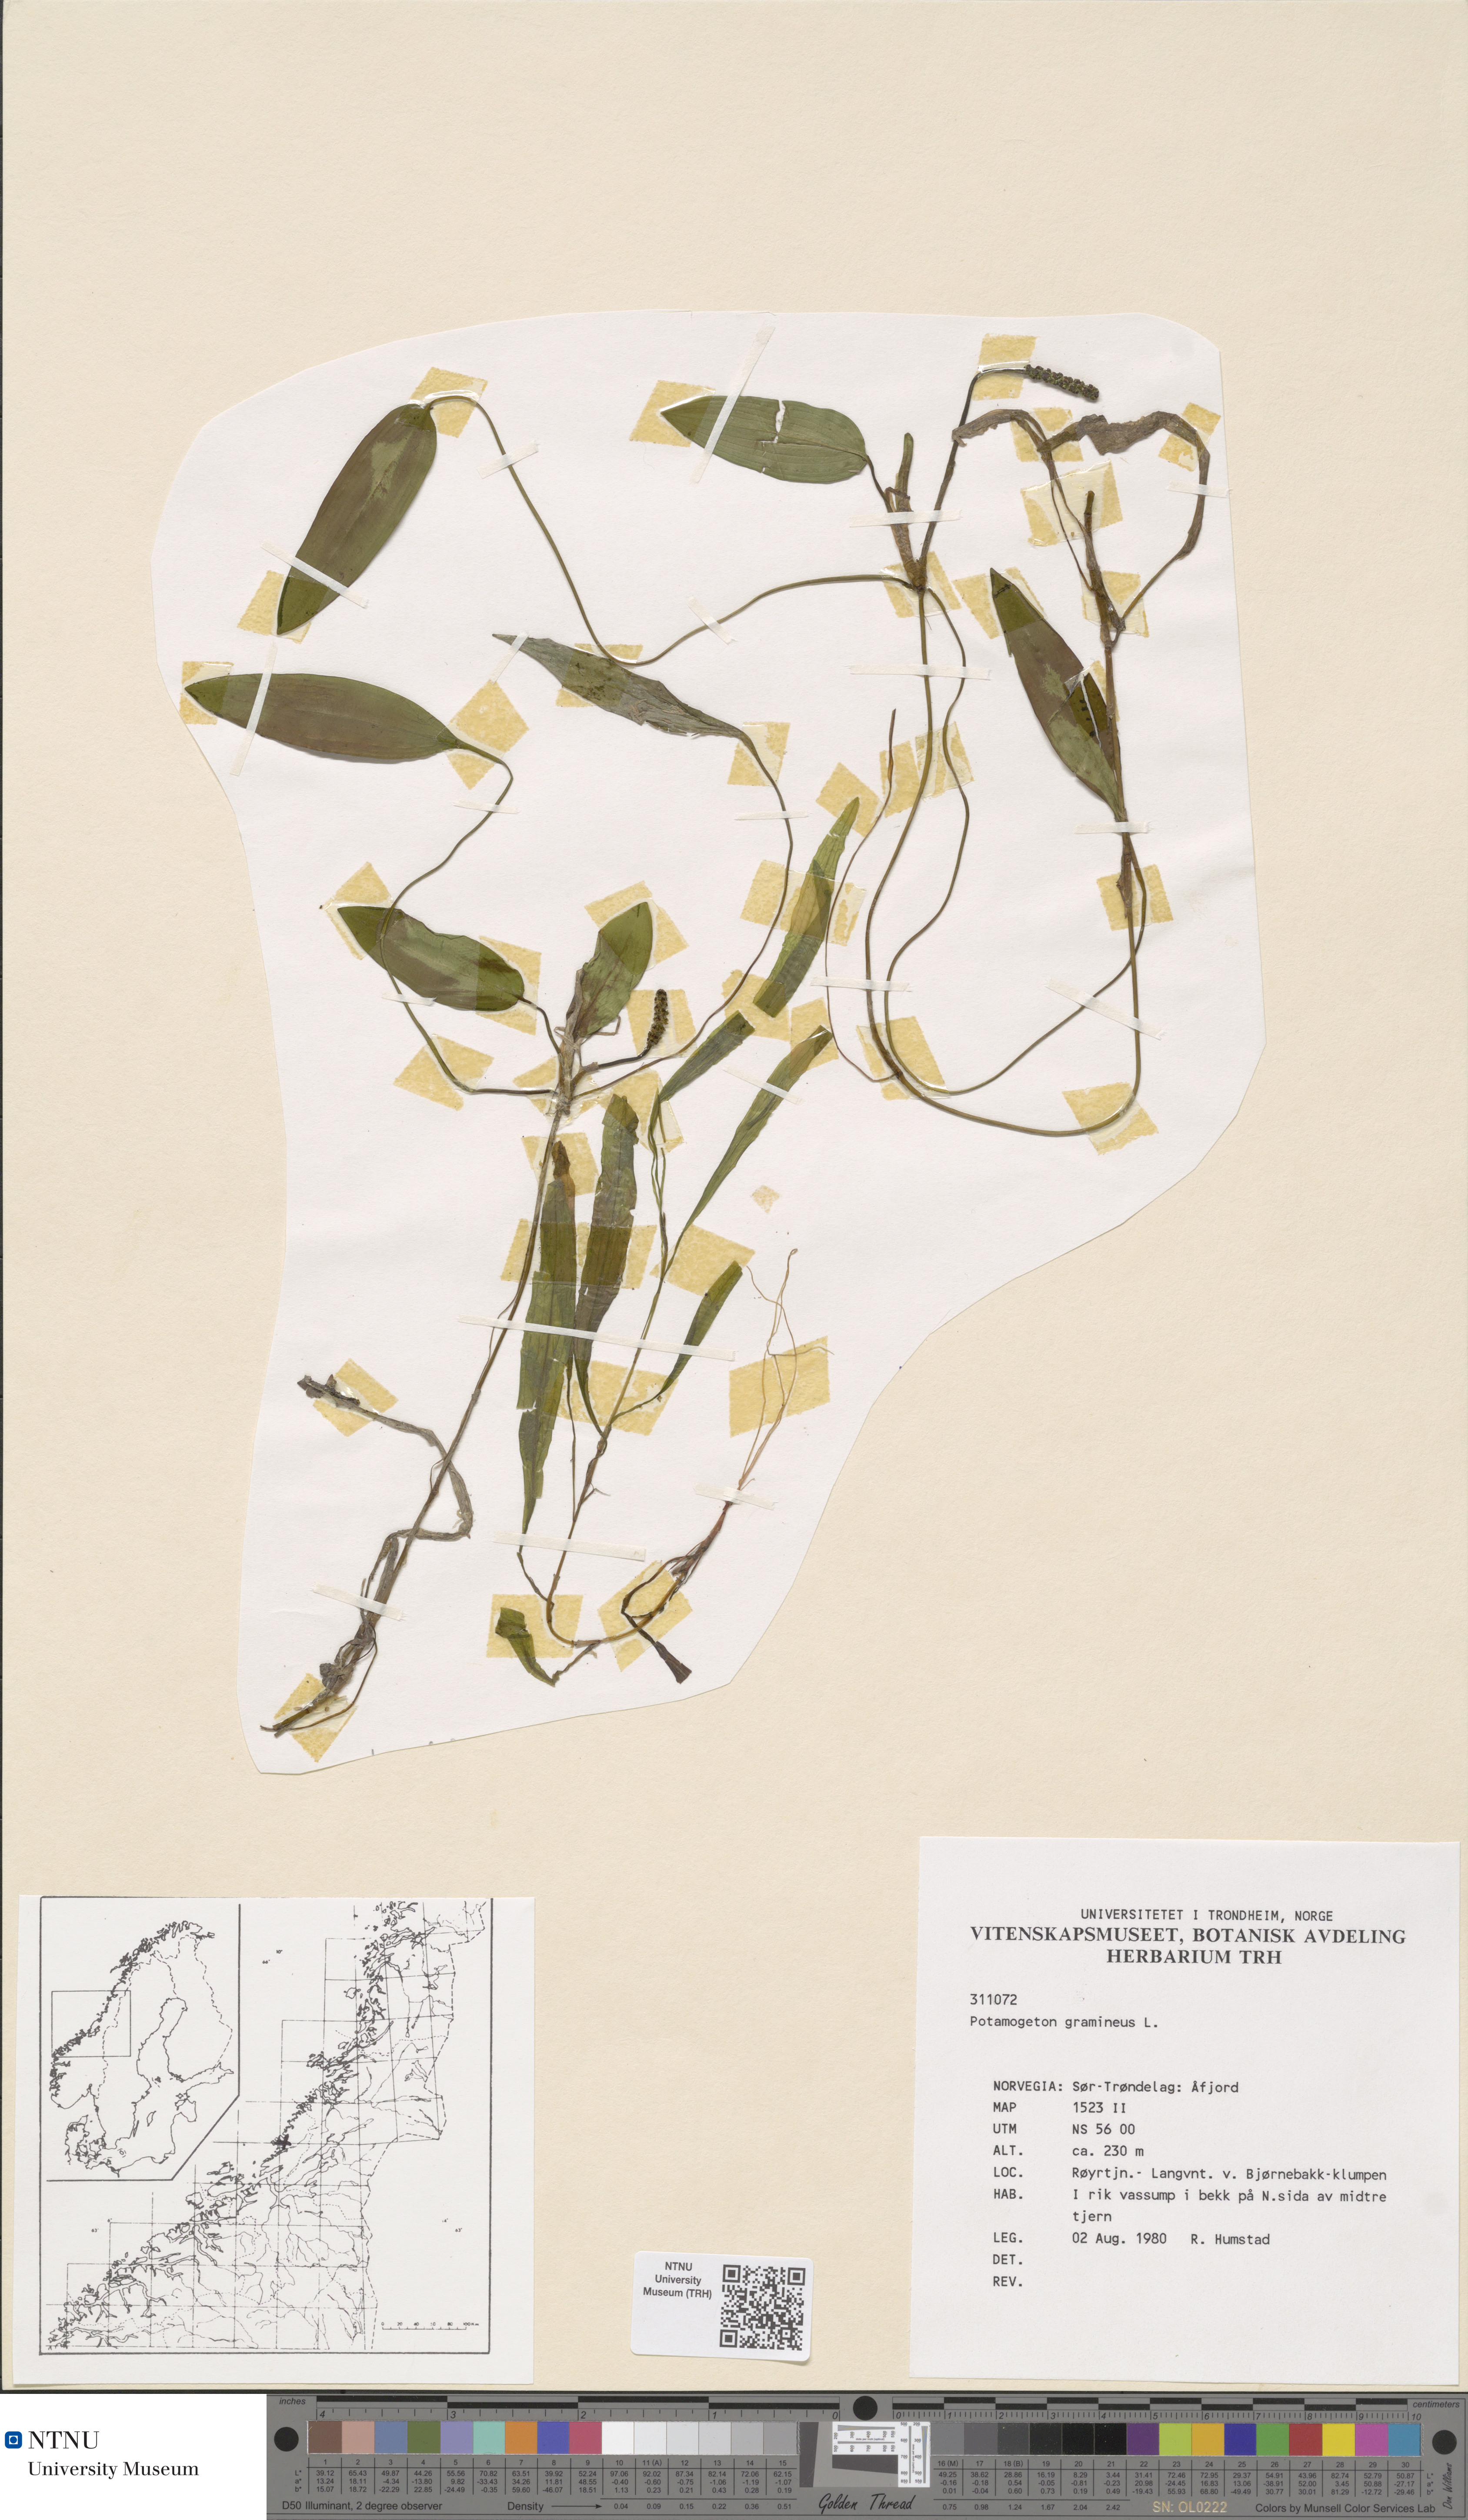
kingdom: Plantae
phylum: Tracheophyta
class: Liliopsida
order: Alismatales
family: Potamogetonaceae
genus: Potamogeton
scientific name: Potamogeton polygonifolius
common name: Bog pondweed
